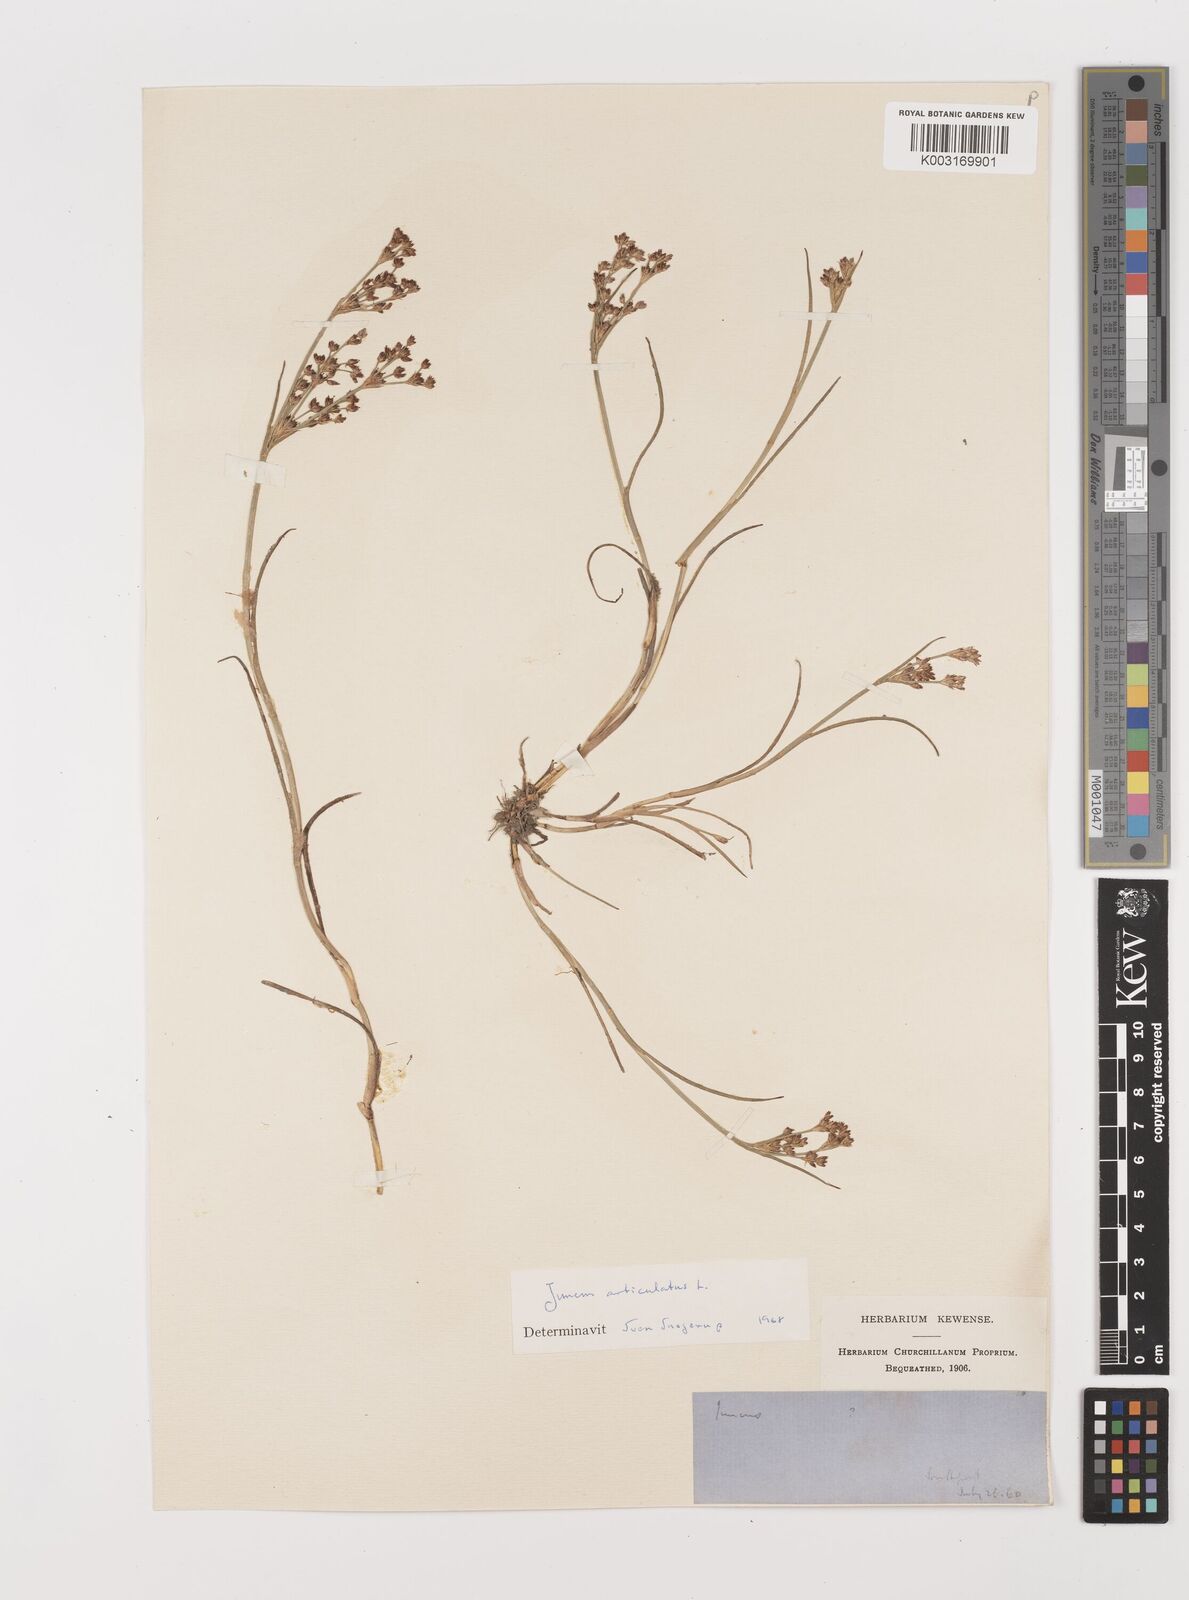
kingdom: Plantae
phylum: Tracheophyta
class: Liliopsida
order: Poales
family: Juncaceae
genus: Juncus
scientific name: Juncus articulatus
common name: Jointed rush
